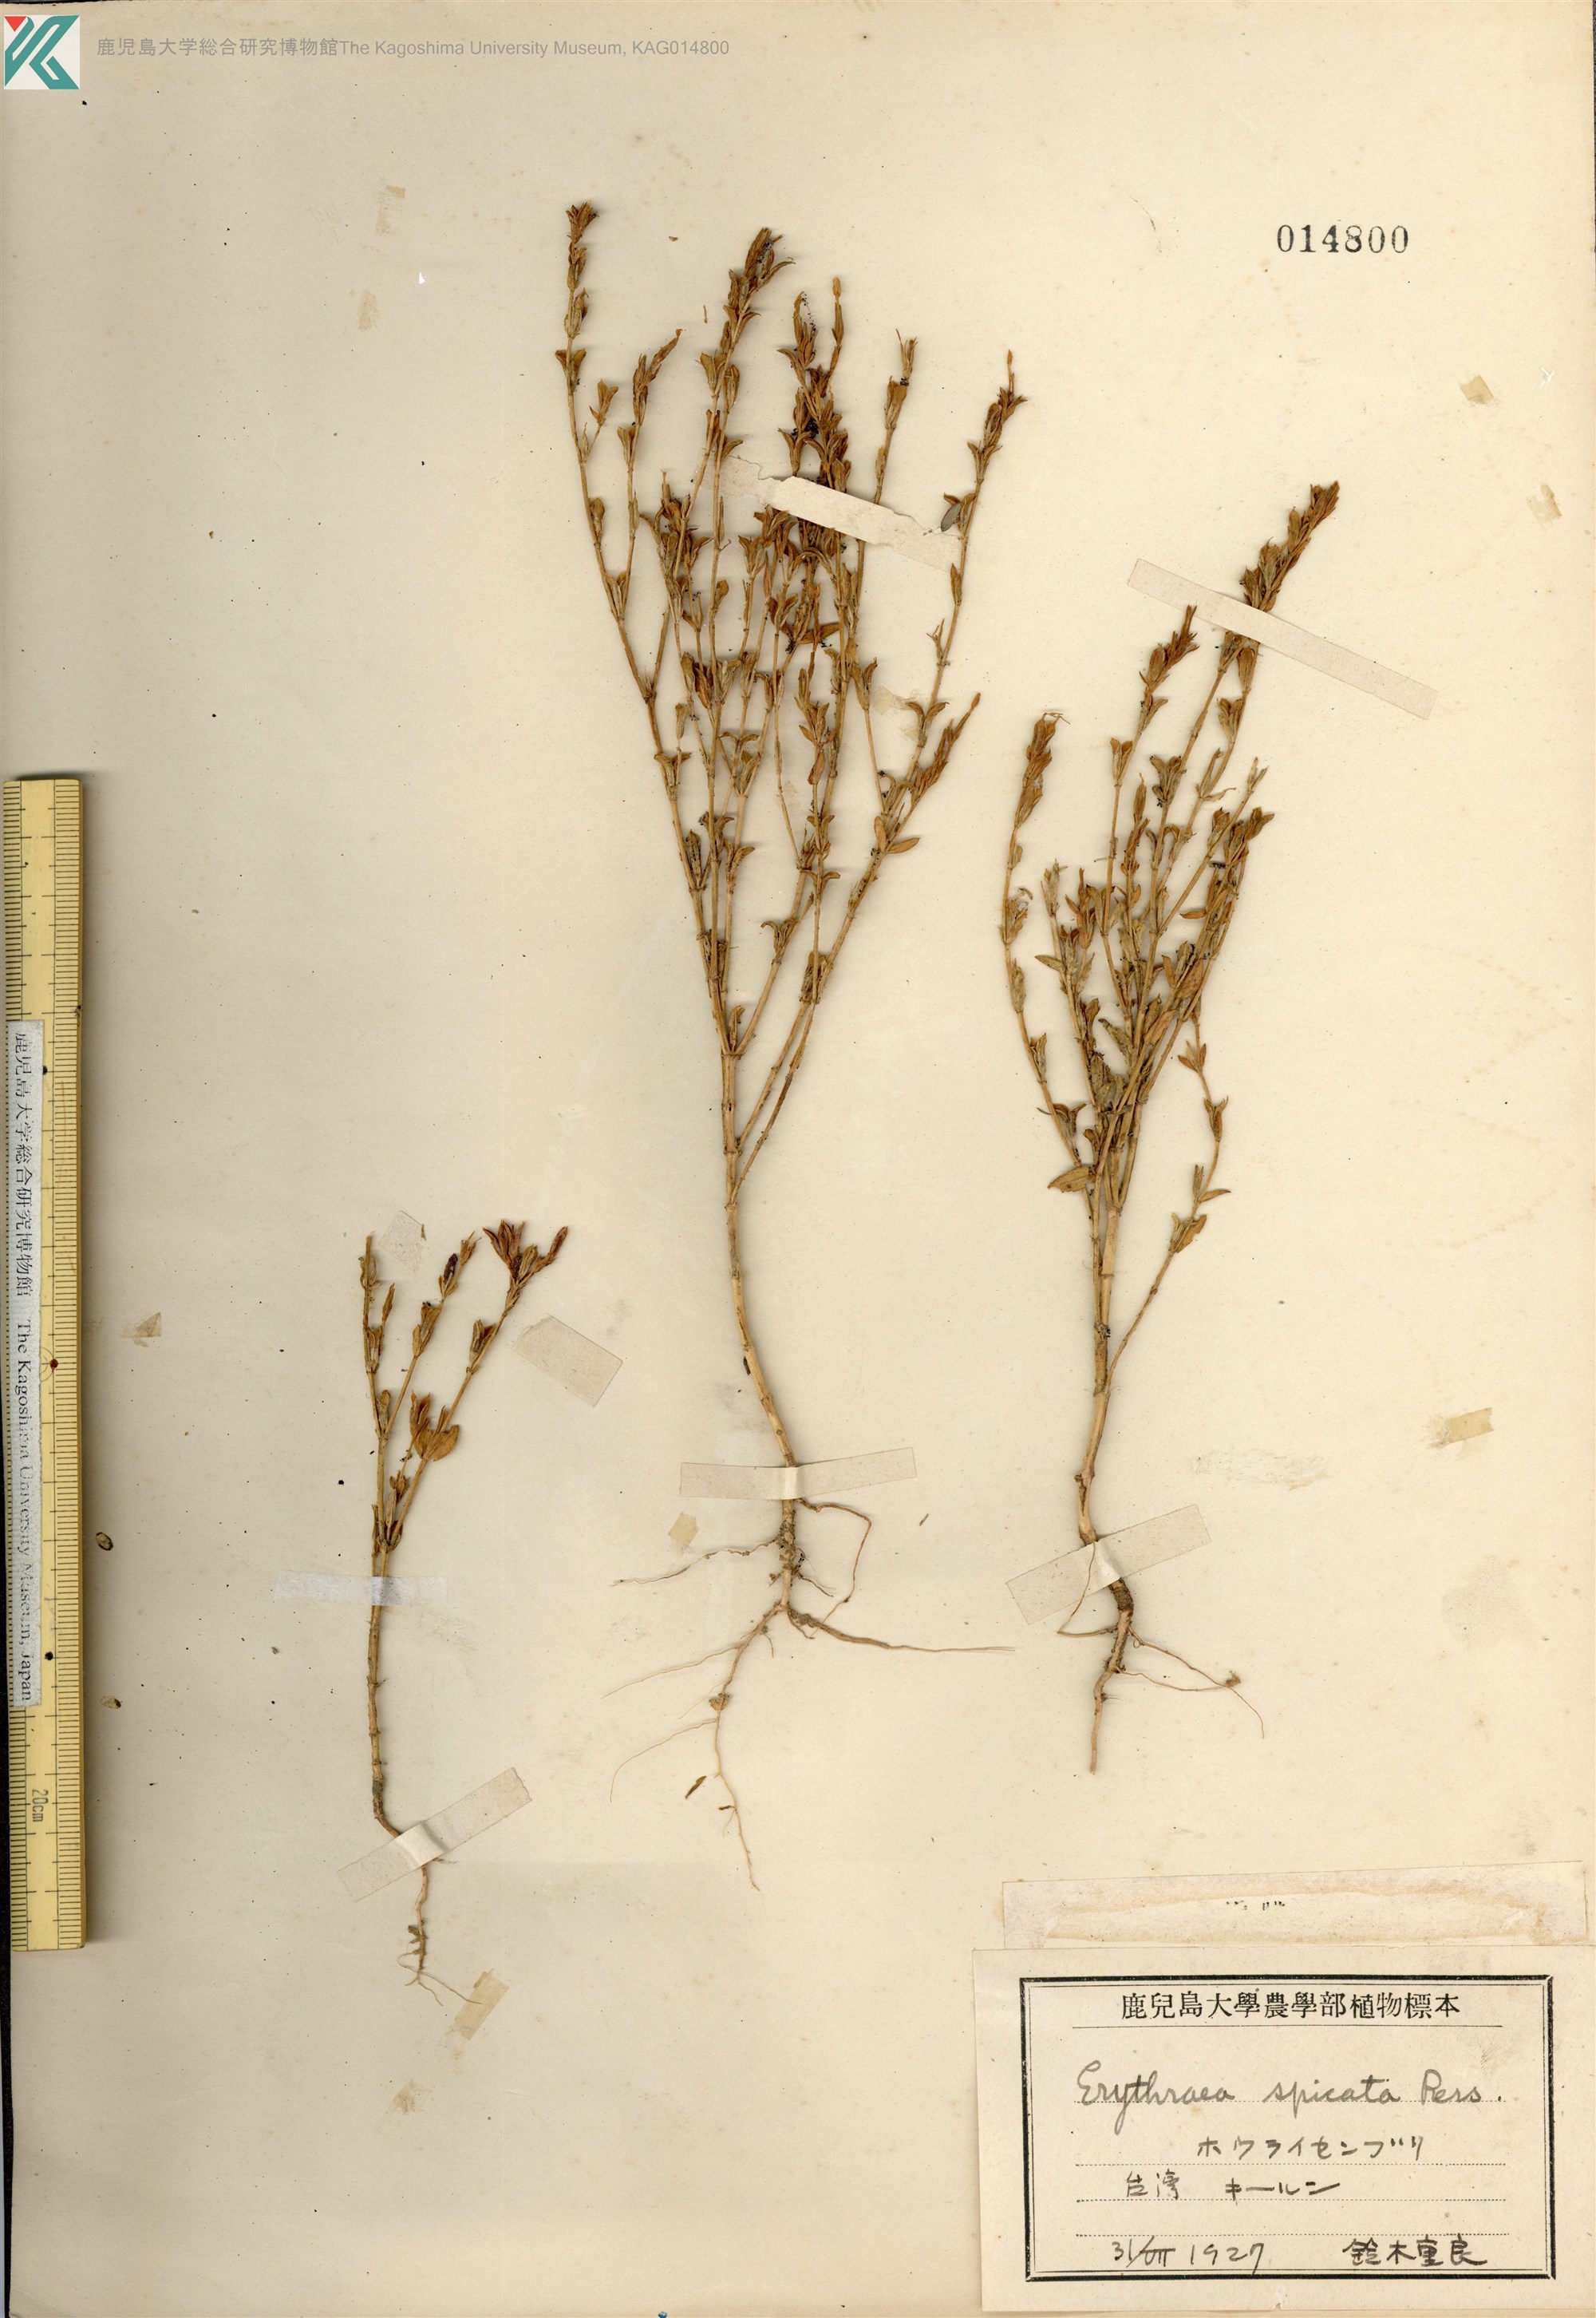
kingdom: Plantae
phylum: Tracheophyta
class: Magnoliopsida
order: Gentianales
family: Gentianaceae
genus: Schenkia
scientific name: Schenkia japonica
